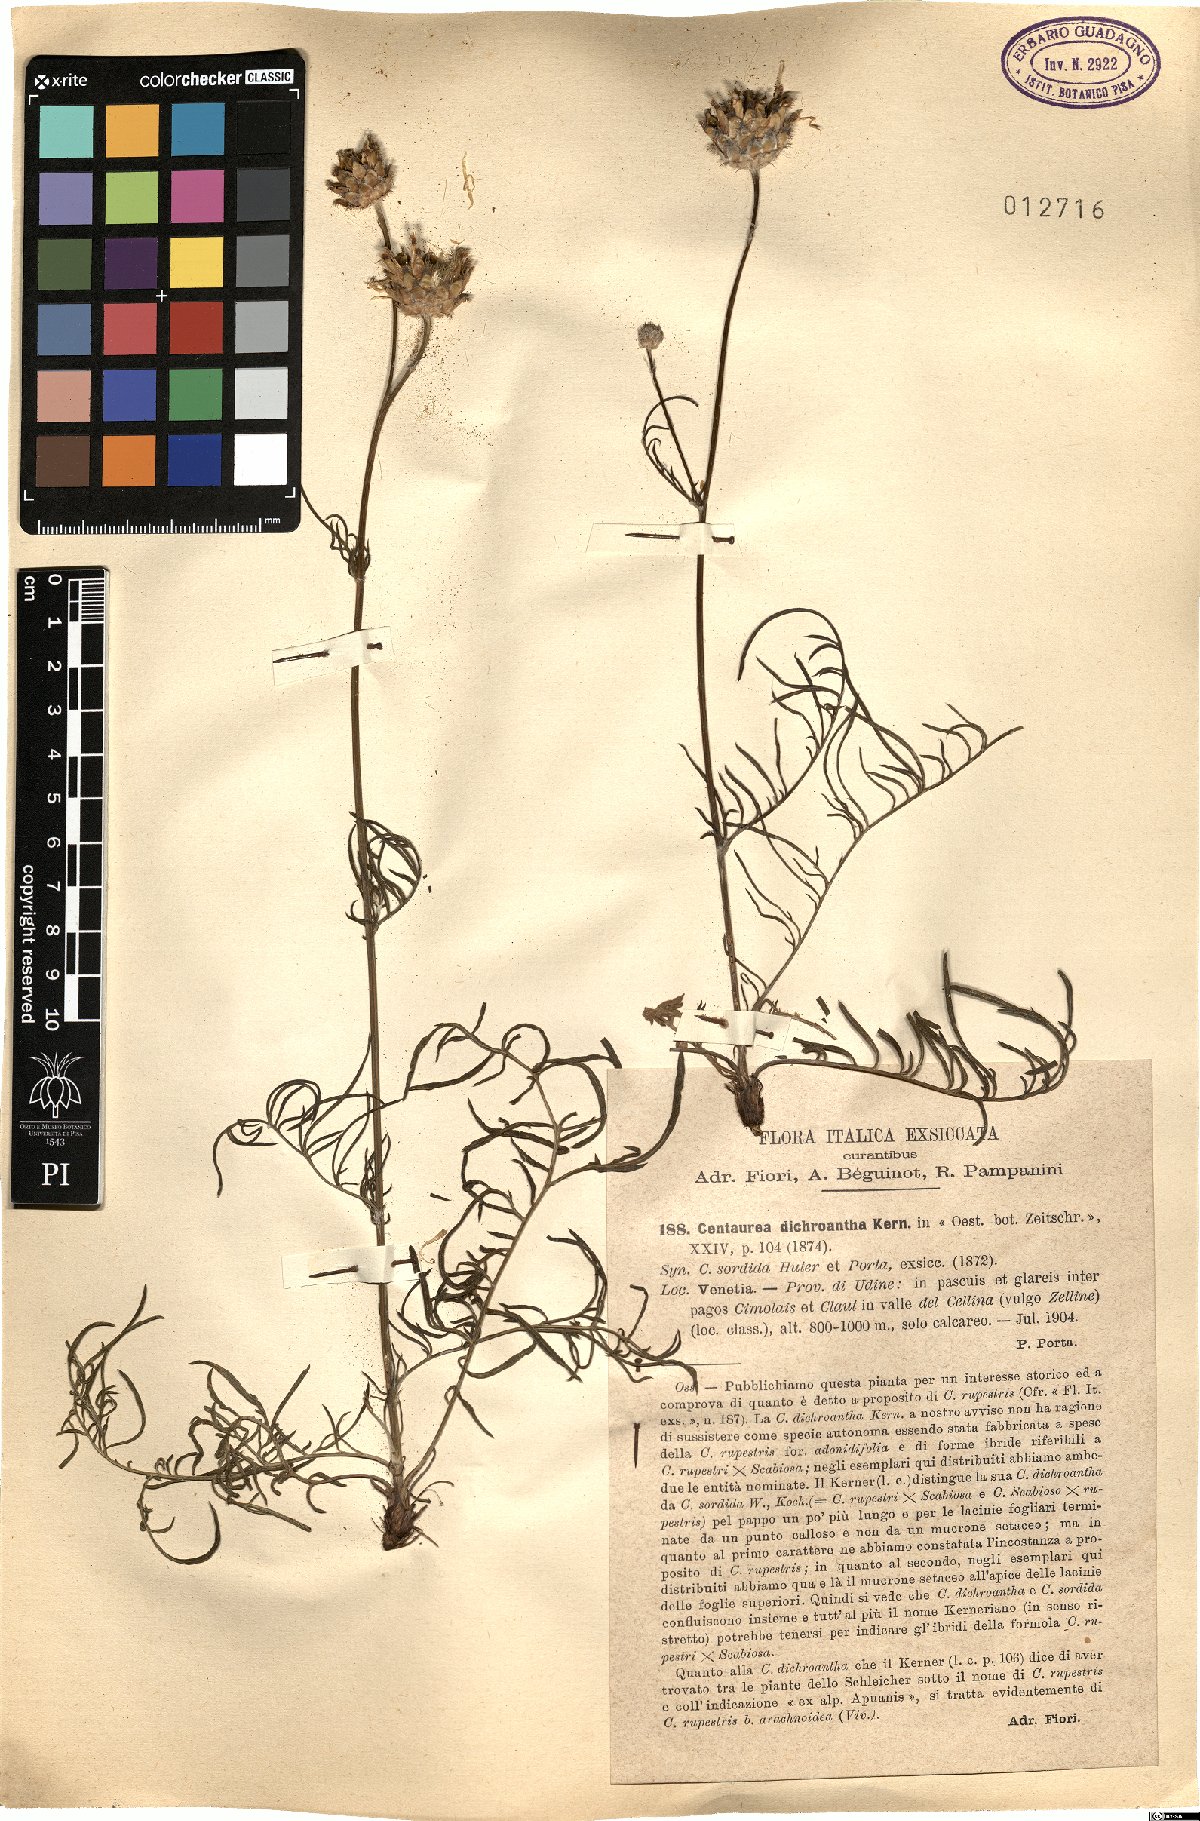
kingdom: Plantae
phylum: Tracheophyta
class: Magnoliopsida
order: Asterales
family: Asteraceae
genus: Centaurea
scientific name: Centaurea dichroantha
